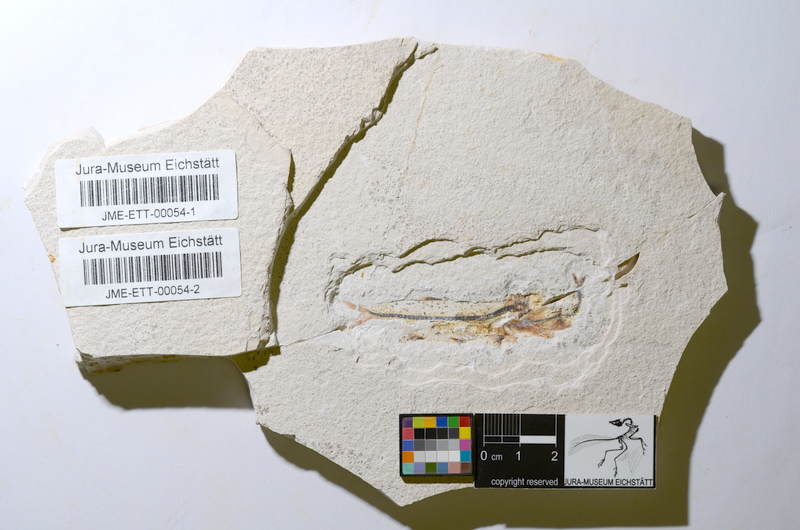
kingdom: Animalia
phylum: Chordata
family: Ascalaboidae
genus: Ebertichthys
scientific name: Ebertichthys ettlingensis
